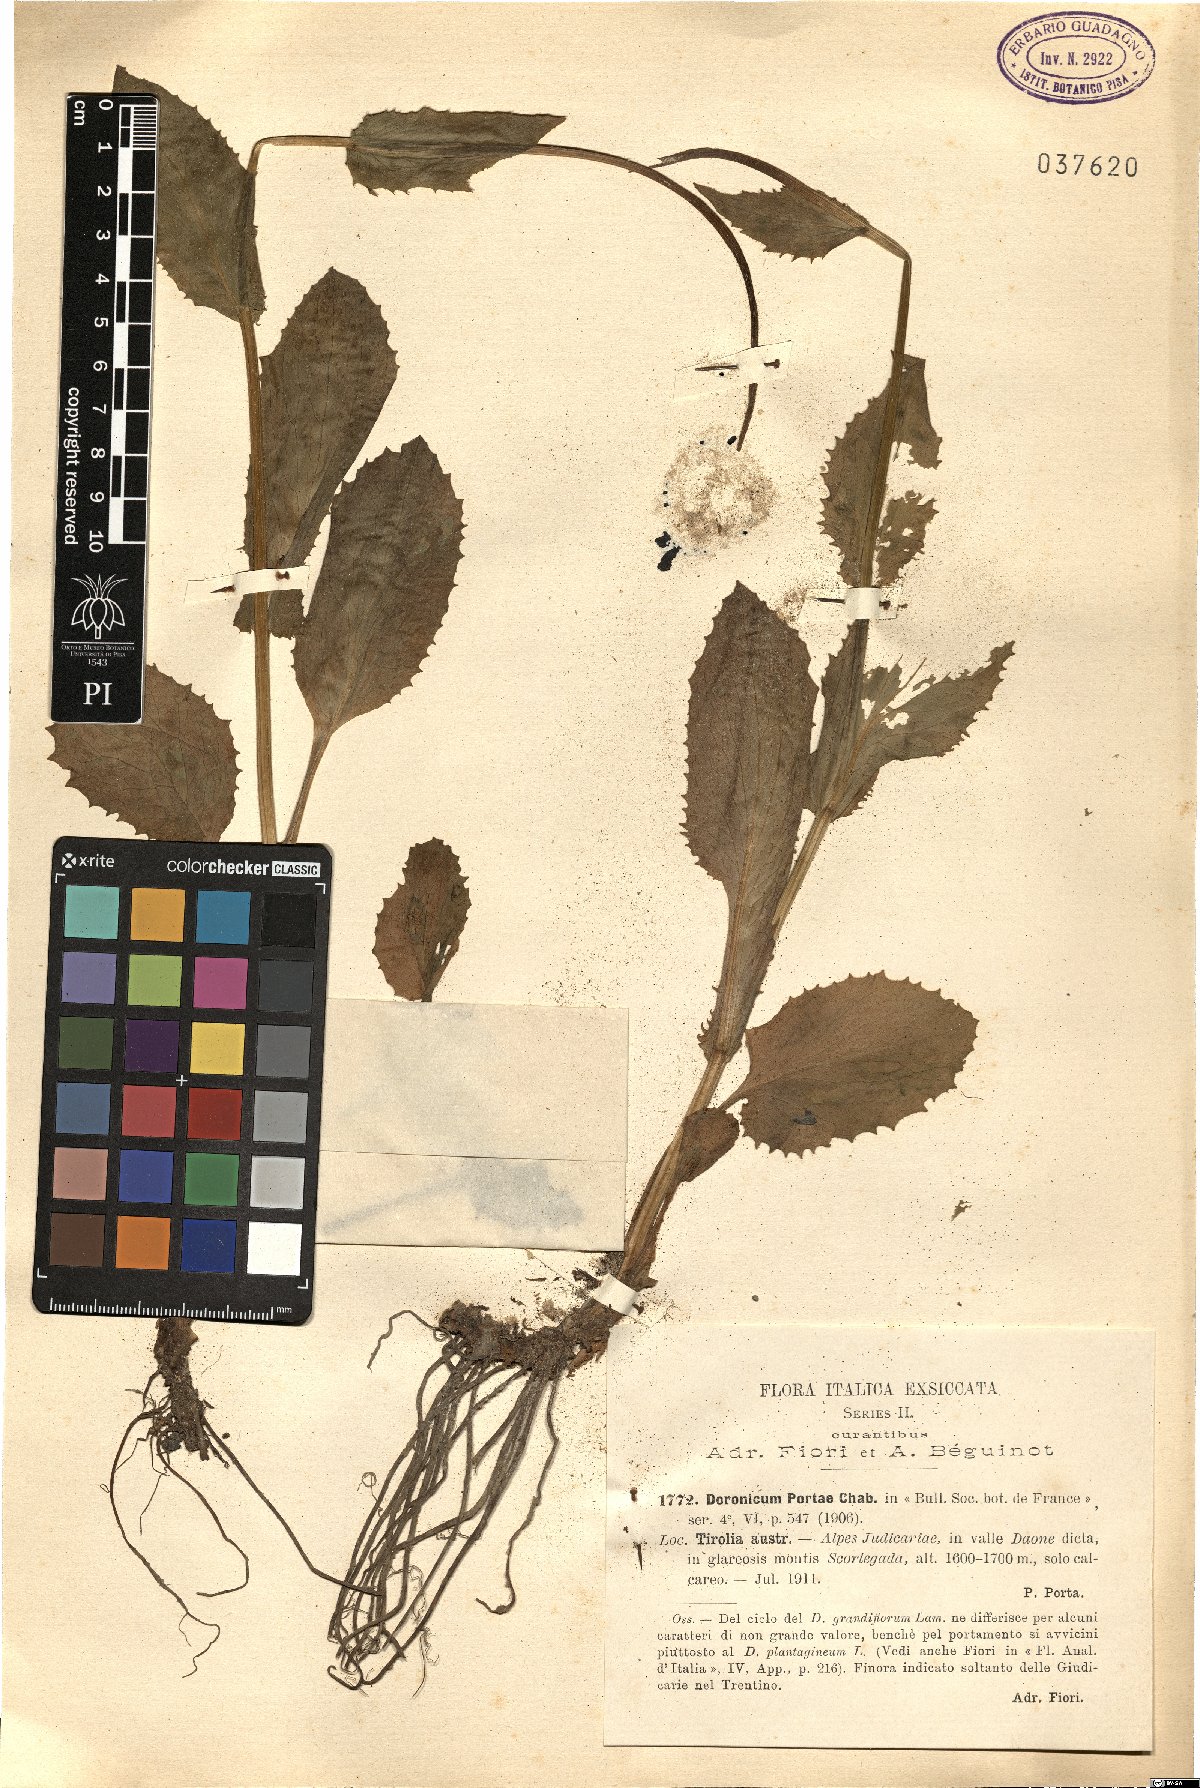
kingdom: Plantae
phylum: Tracheophyta
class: Magnoliopsida
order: Asterales
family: Asteraceae
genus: Doronicum
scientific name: Doronicum grandiflorum
